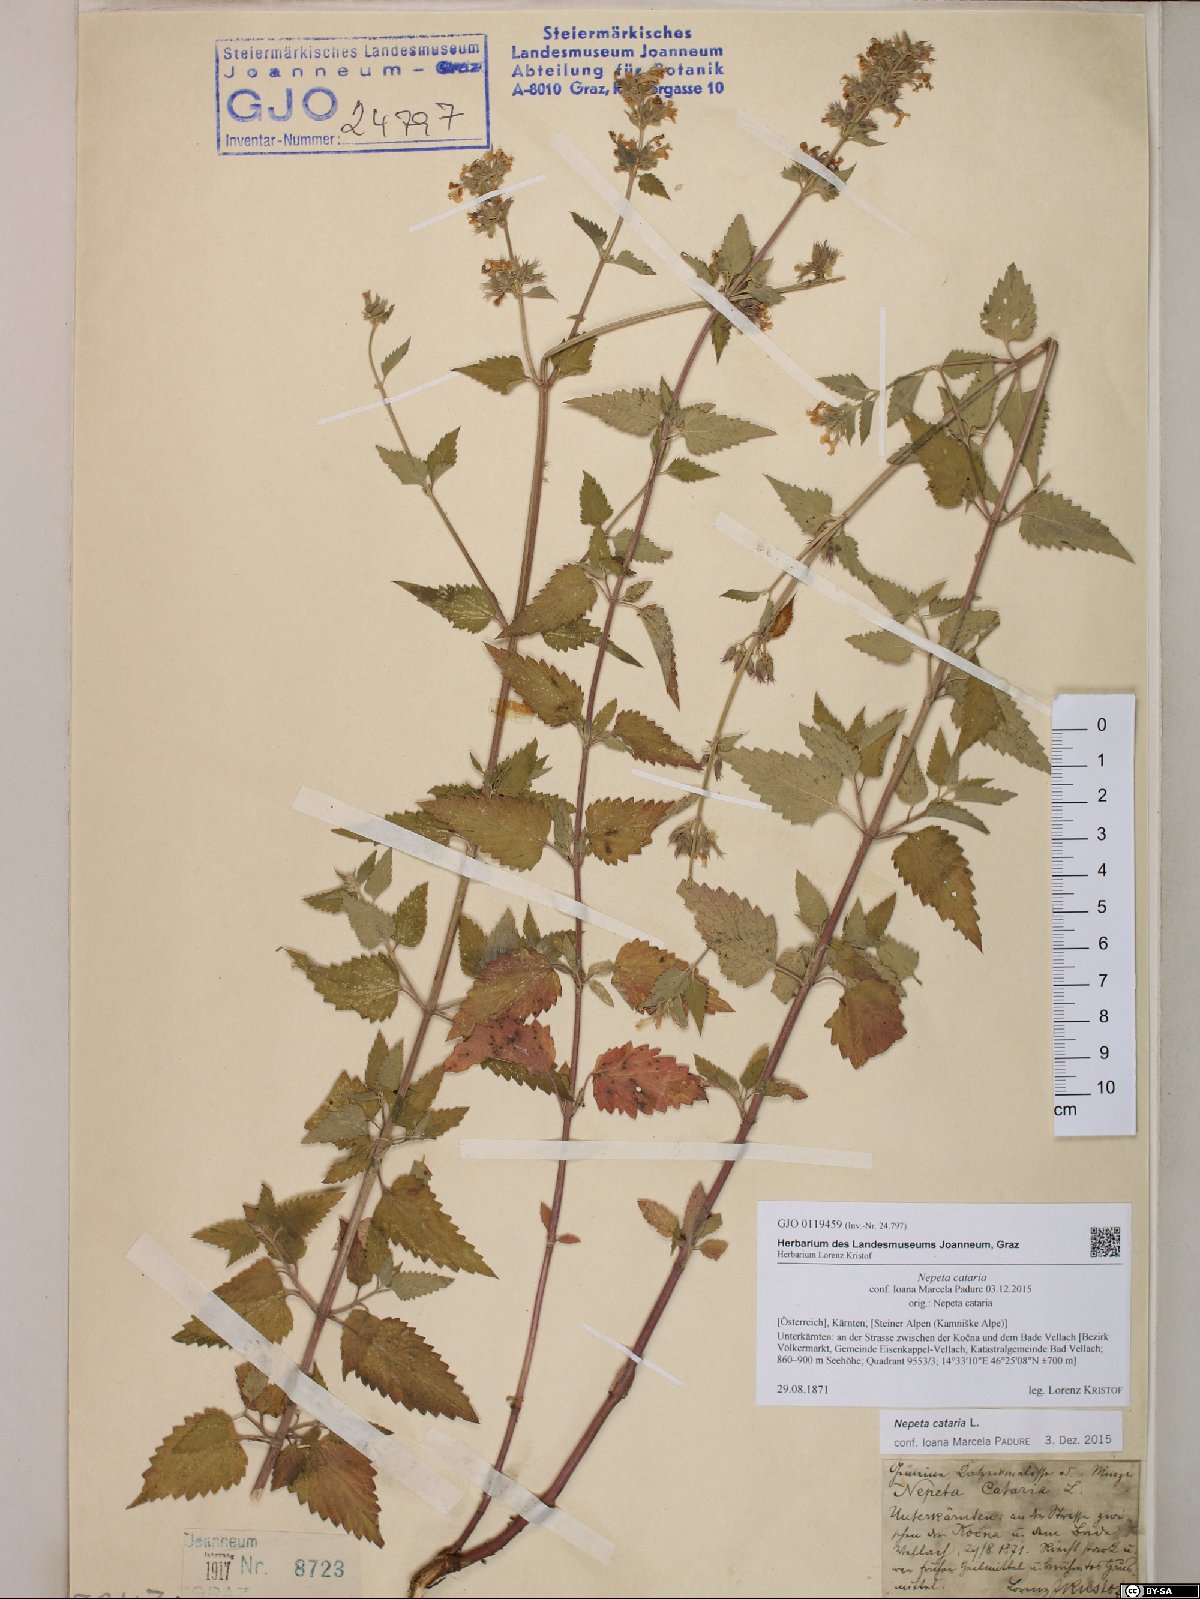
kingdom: Plantae
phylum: Tracheophyta
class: Magnoliopsida
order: Lamiales
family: Lamiaceae
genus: Nepeta
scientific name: Nepeta cataria
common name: Catnip
